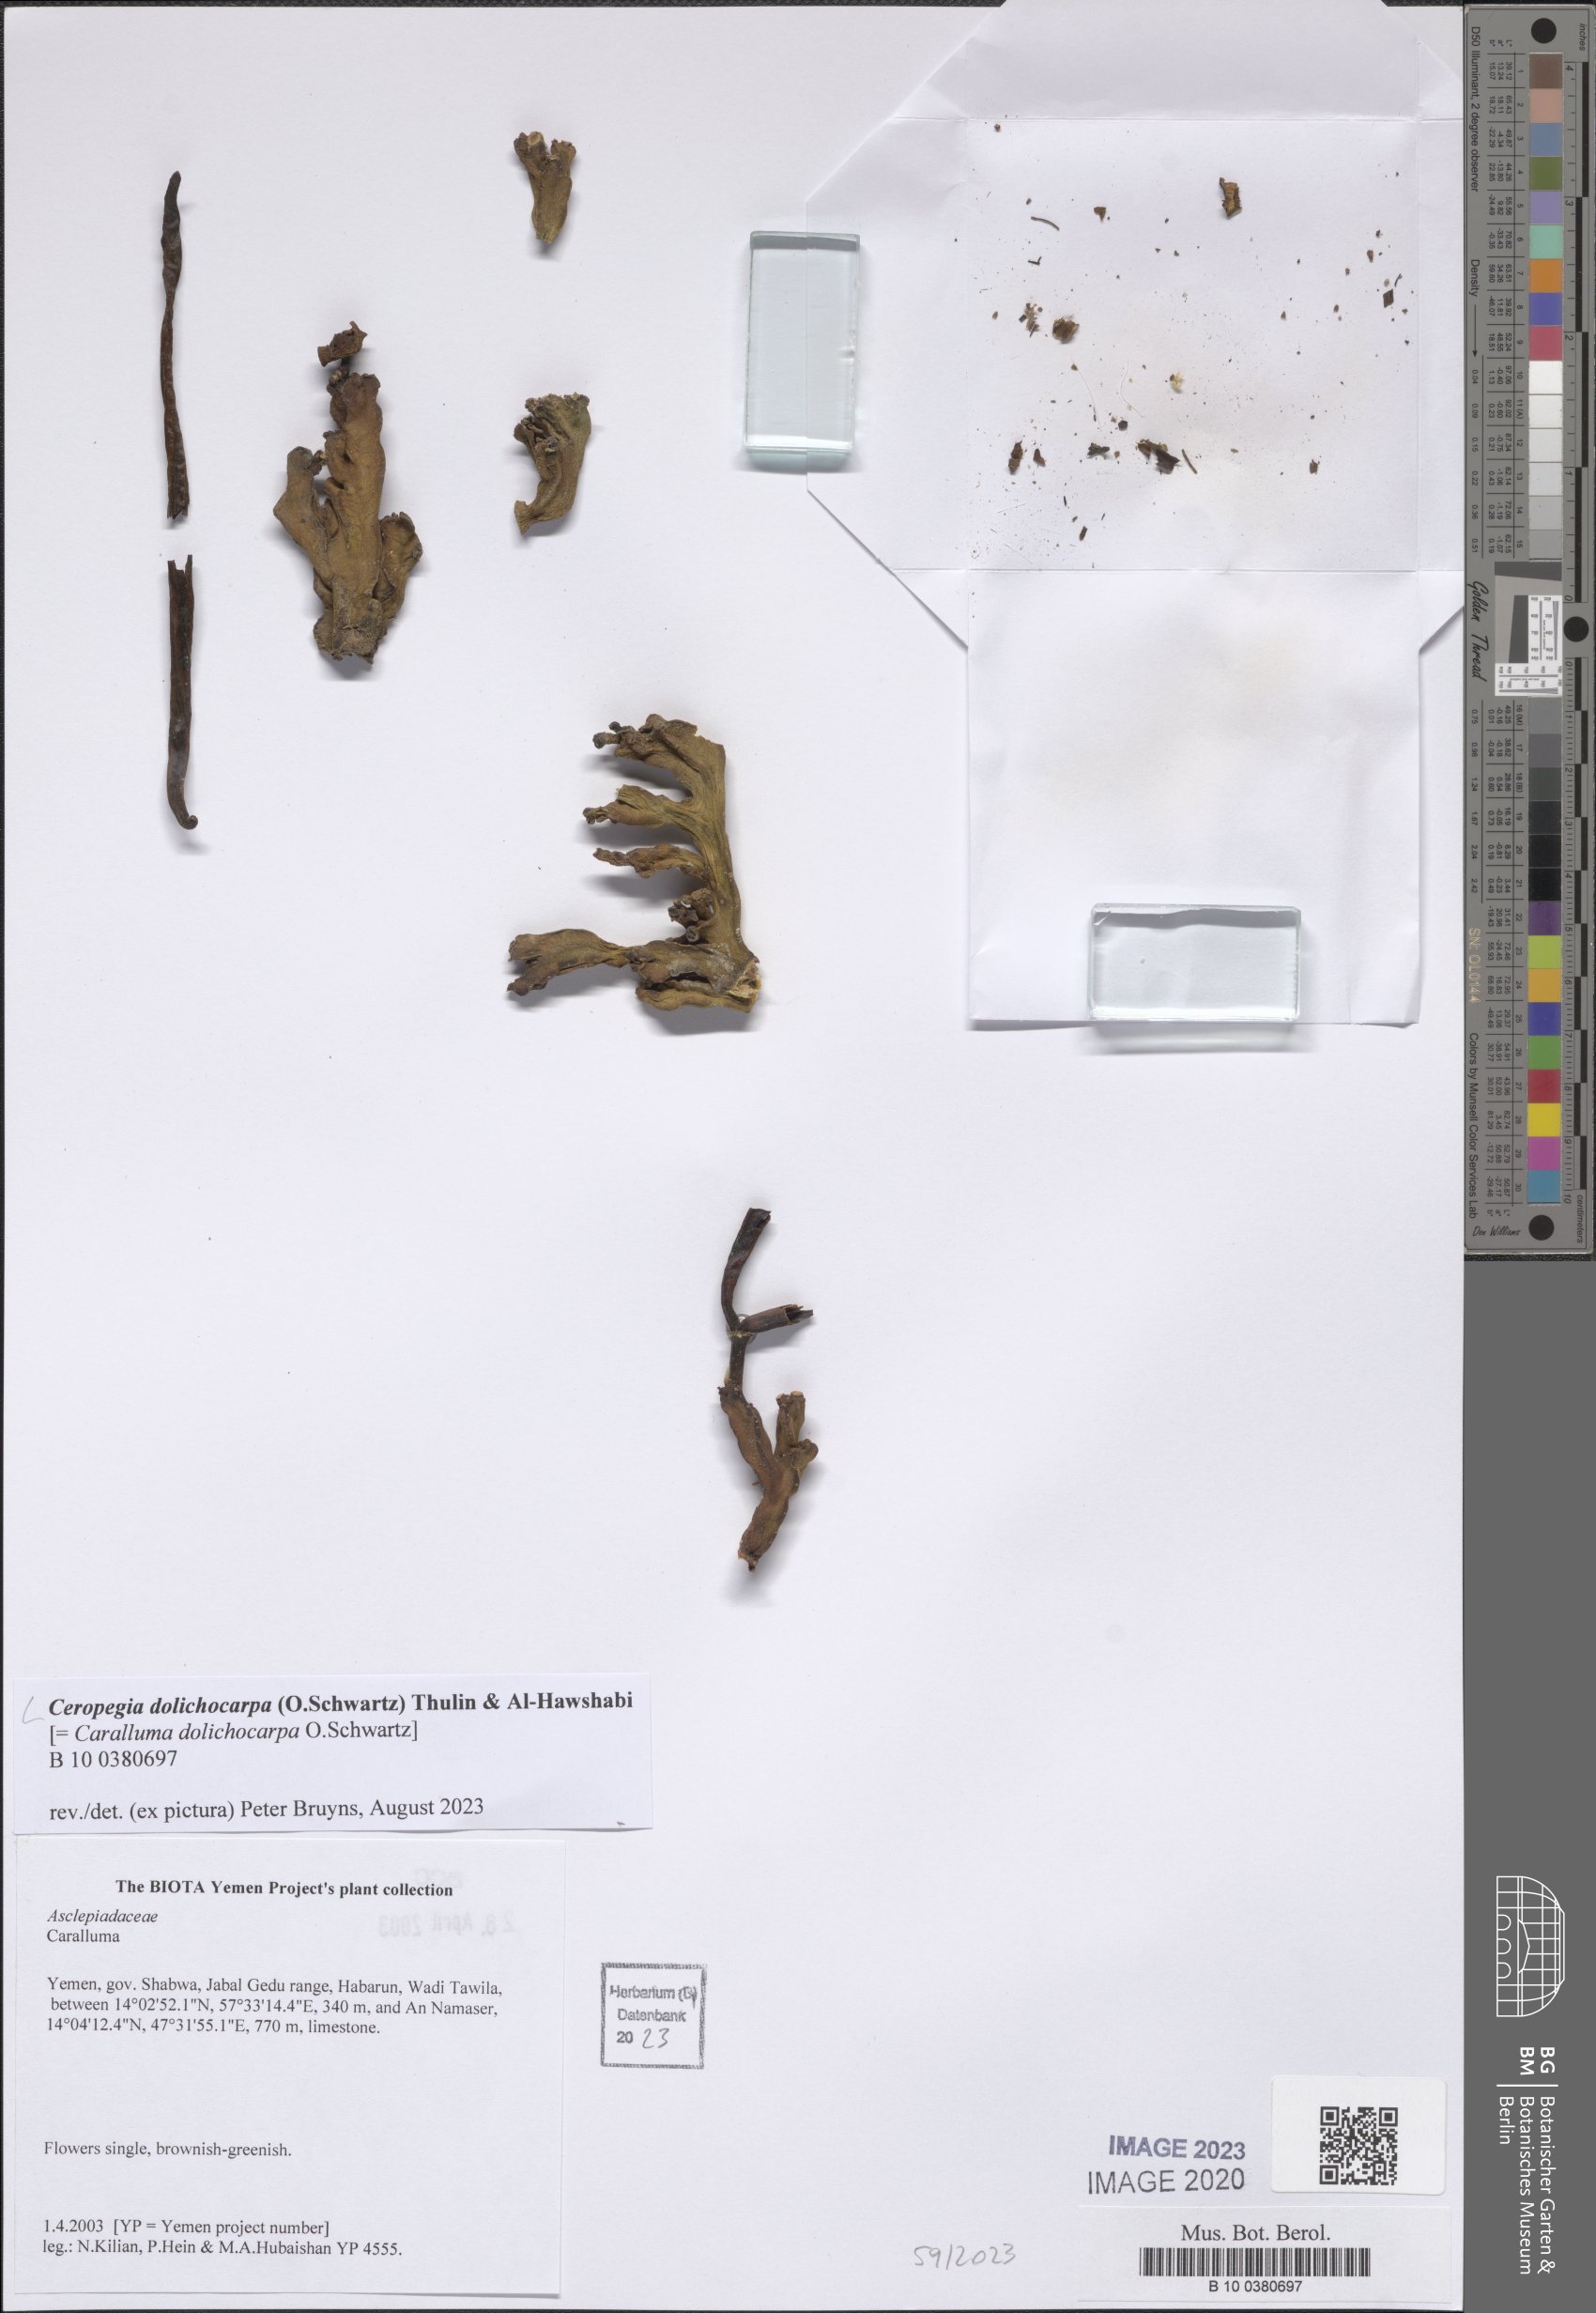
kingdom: Plantae
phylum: Tracheophyta
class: Magnoliopsida
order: Gentianales
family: Apocynaceae
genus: Ceropegia
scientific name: Ceropegia dolichocarpa
